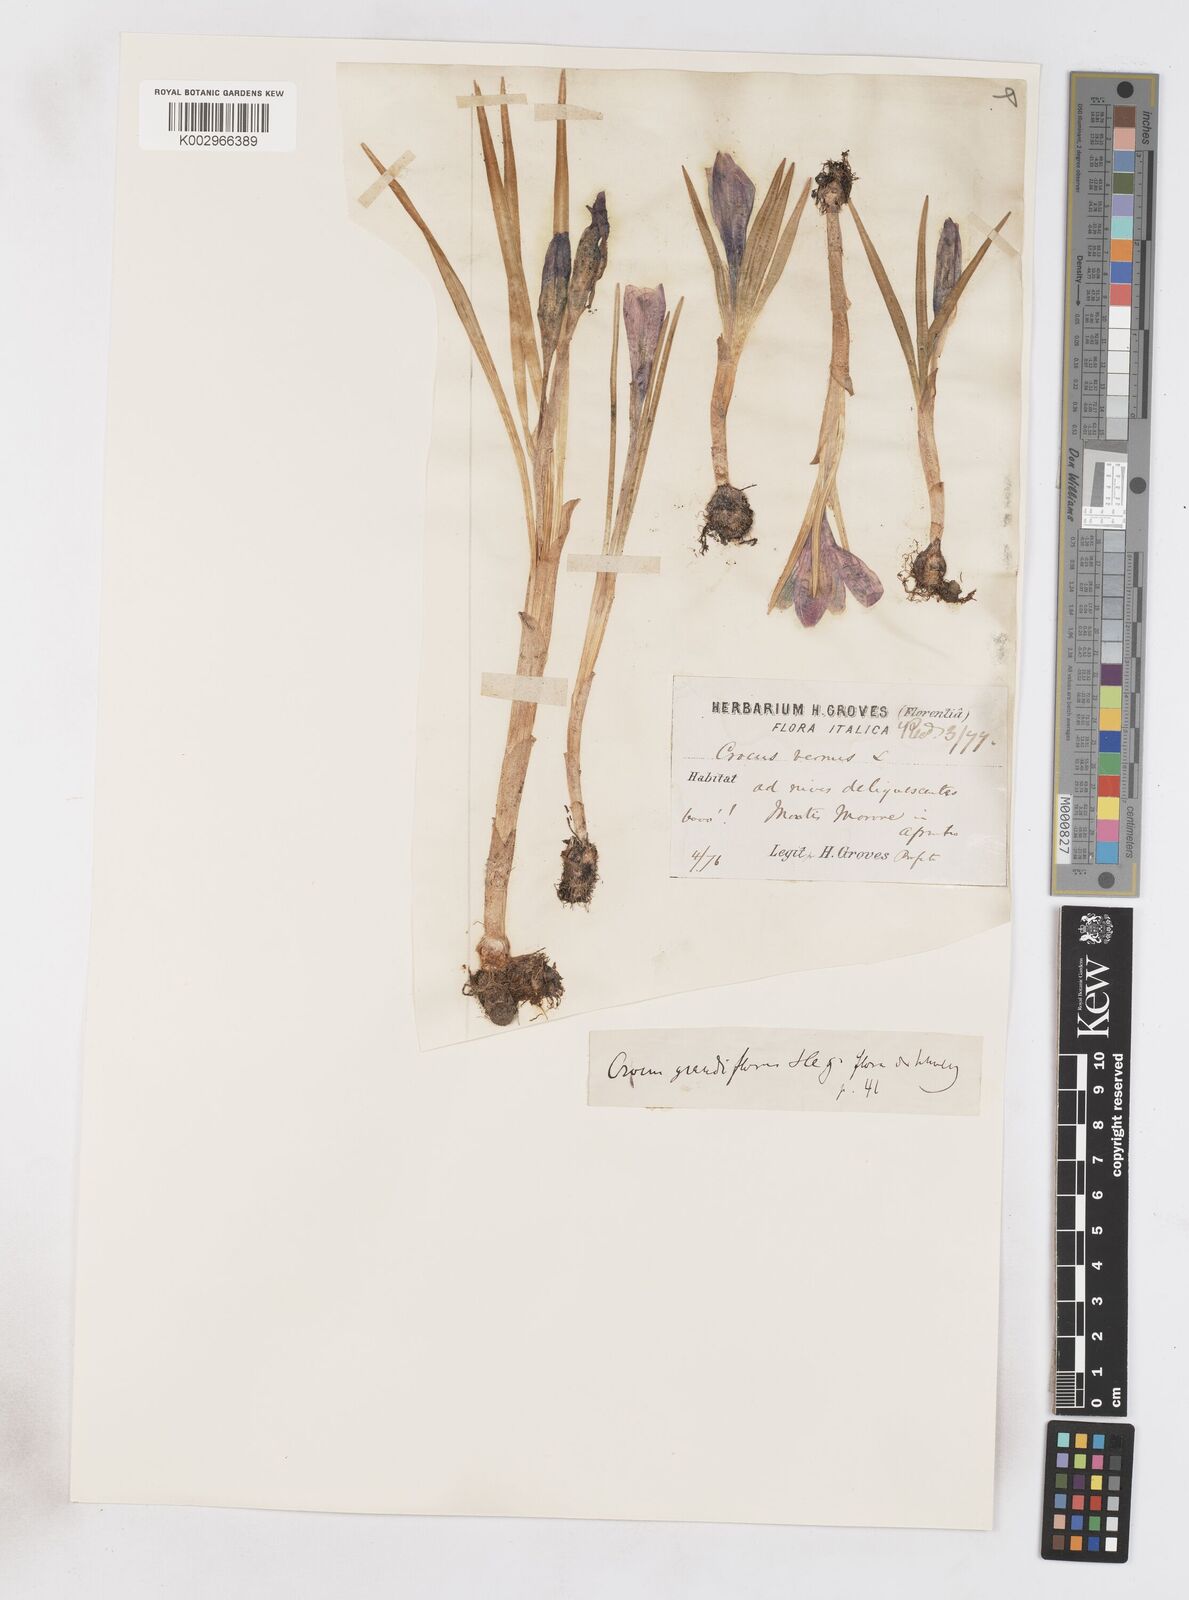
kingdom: Plantae
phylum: Tracheophyta
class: Liliopsida
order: Asparagales
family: Iridaceae
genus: Crocus
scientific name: Crocus vernus
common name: Spring crocus
